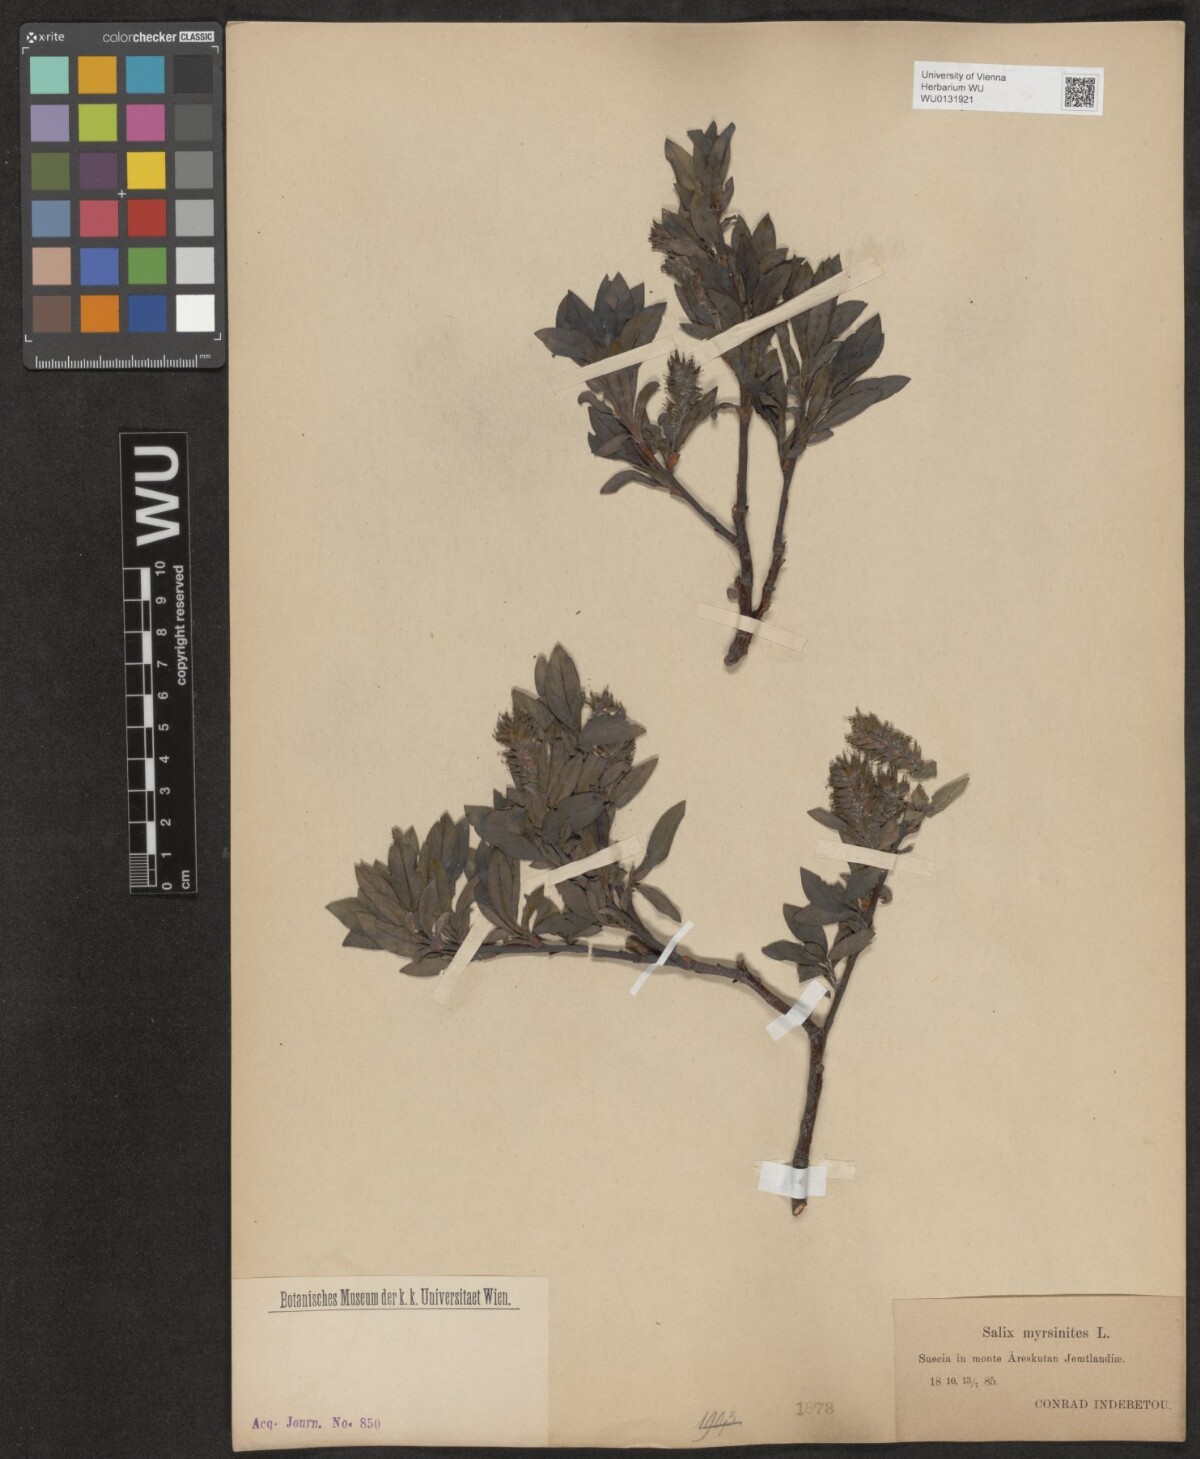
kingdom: Plantae
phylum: Tracheophyta
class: Magnoliopsida
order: Malpighiales
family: Salicaceae
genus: Salix
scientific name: Salix myrsinites
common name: Myrtle willow
